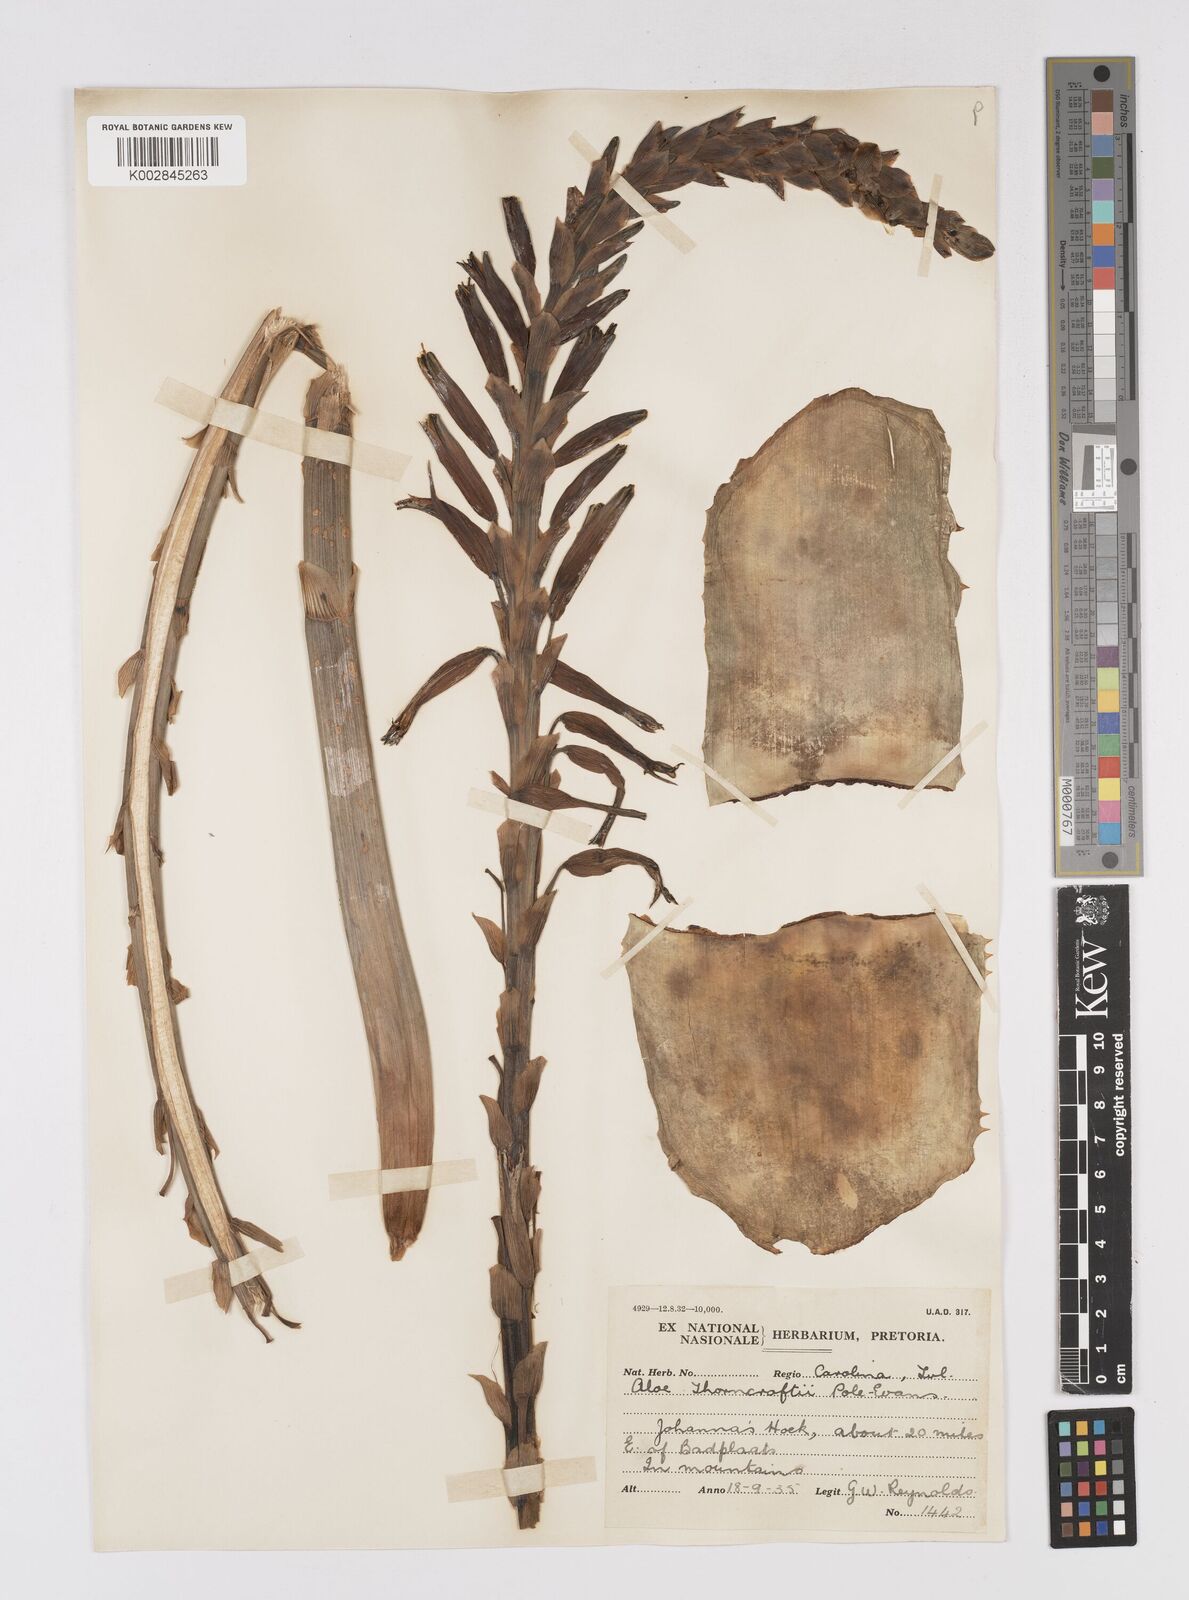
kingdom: Plantae
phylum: Tracheophyta
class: Liliopsida
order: Asparagales
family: Asphodelaceae
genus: Aloe
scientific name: Aloe thorncroftii
